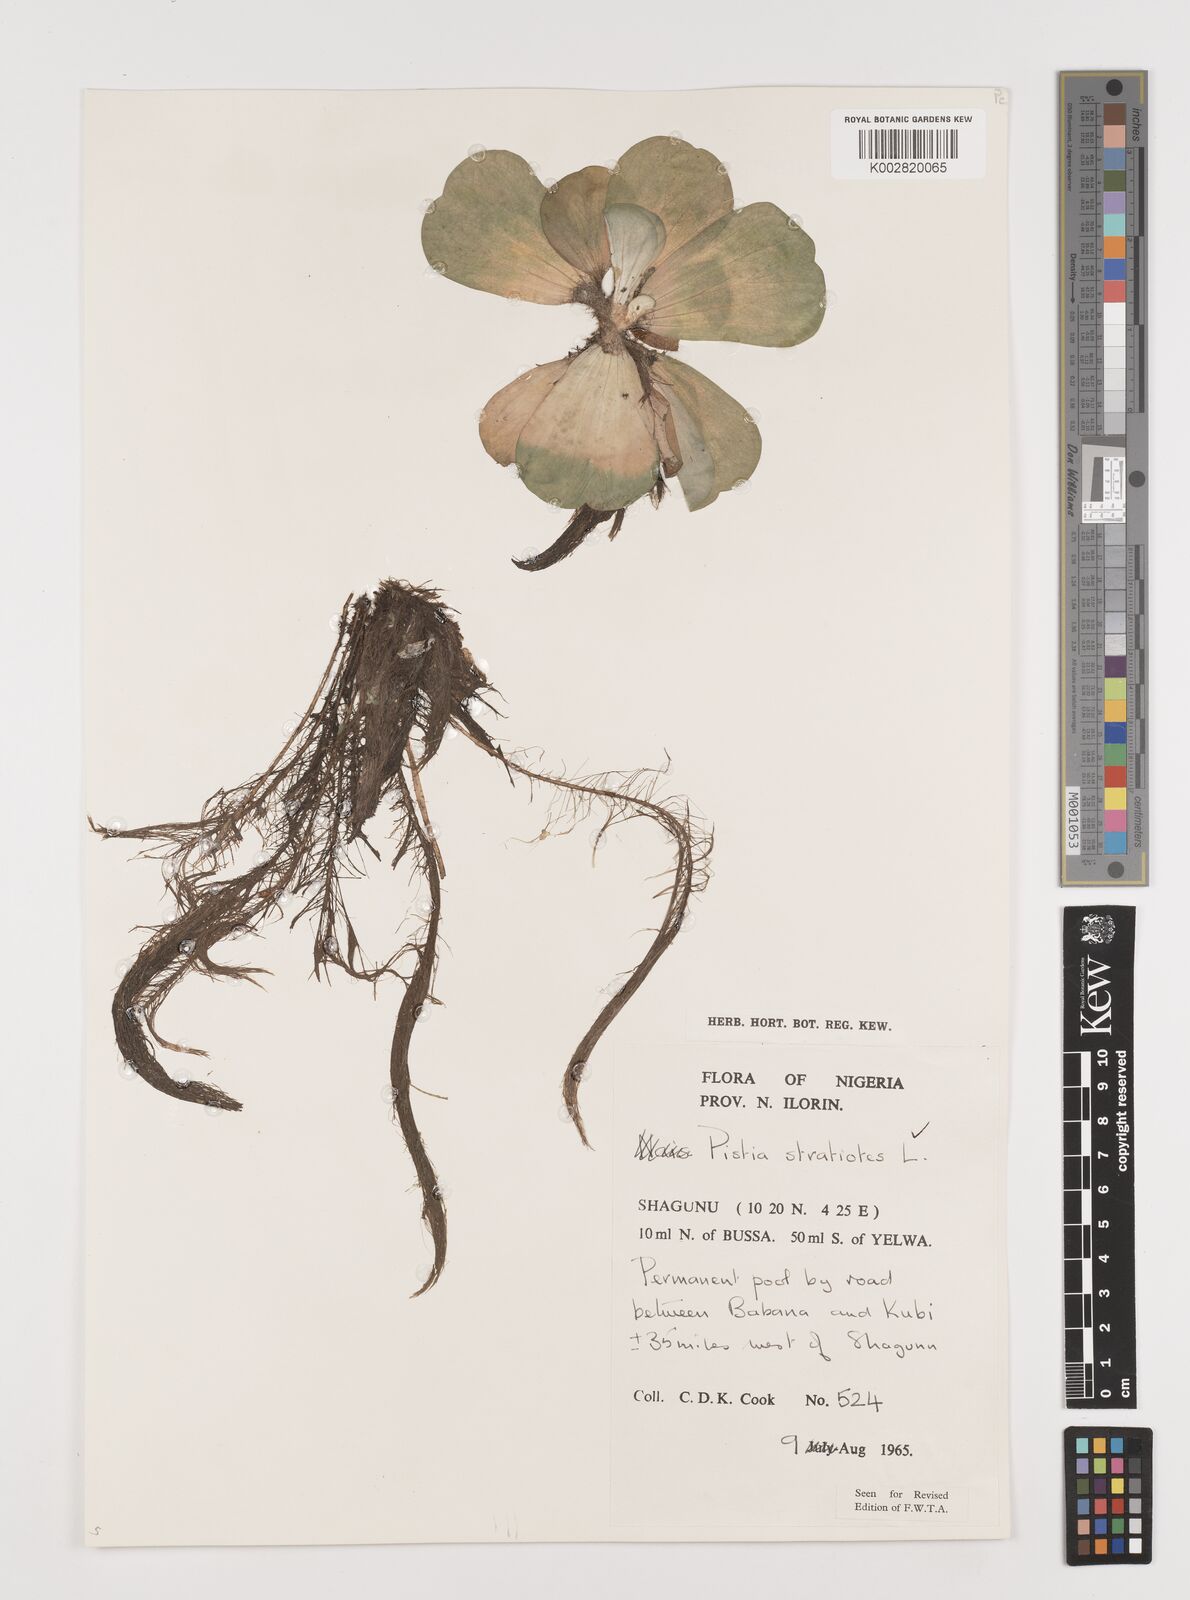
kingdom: Plantae
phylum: Tracheophyta
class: Liliopsida
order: Alismatales
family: Araceae
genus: Pistia
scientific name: Pistia stratiotes
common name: Water lettuce
